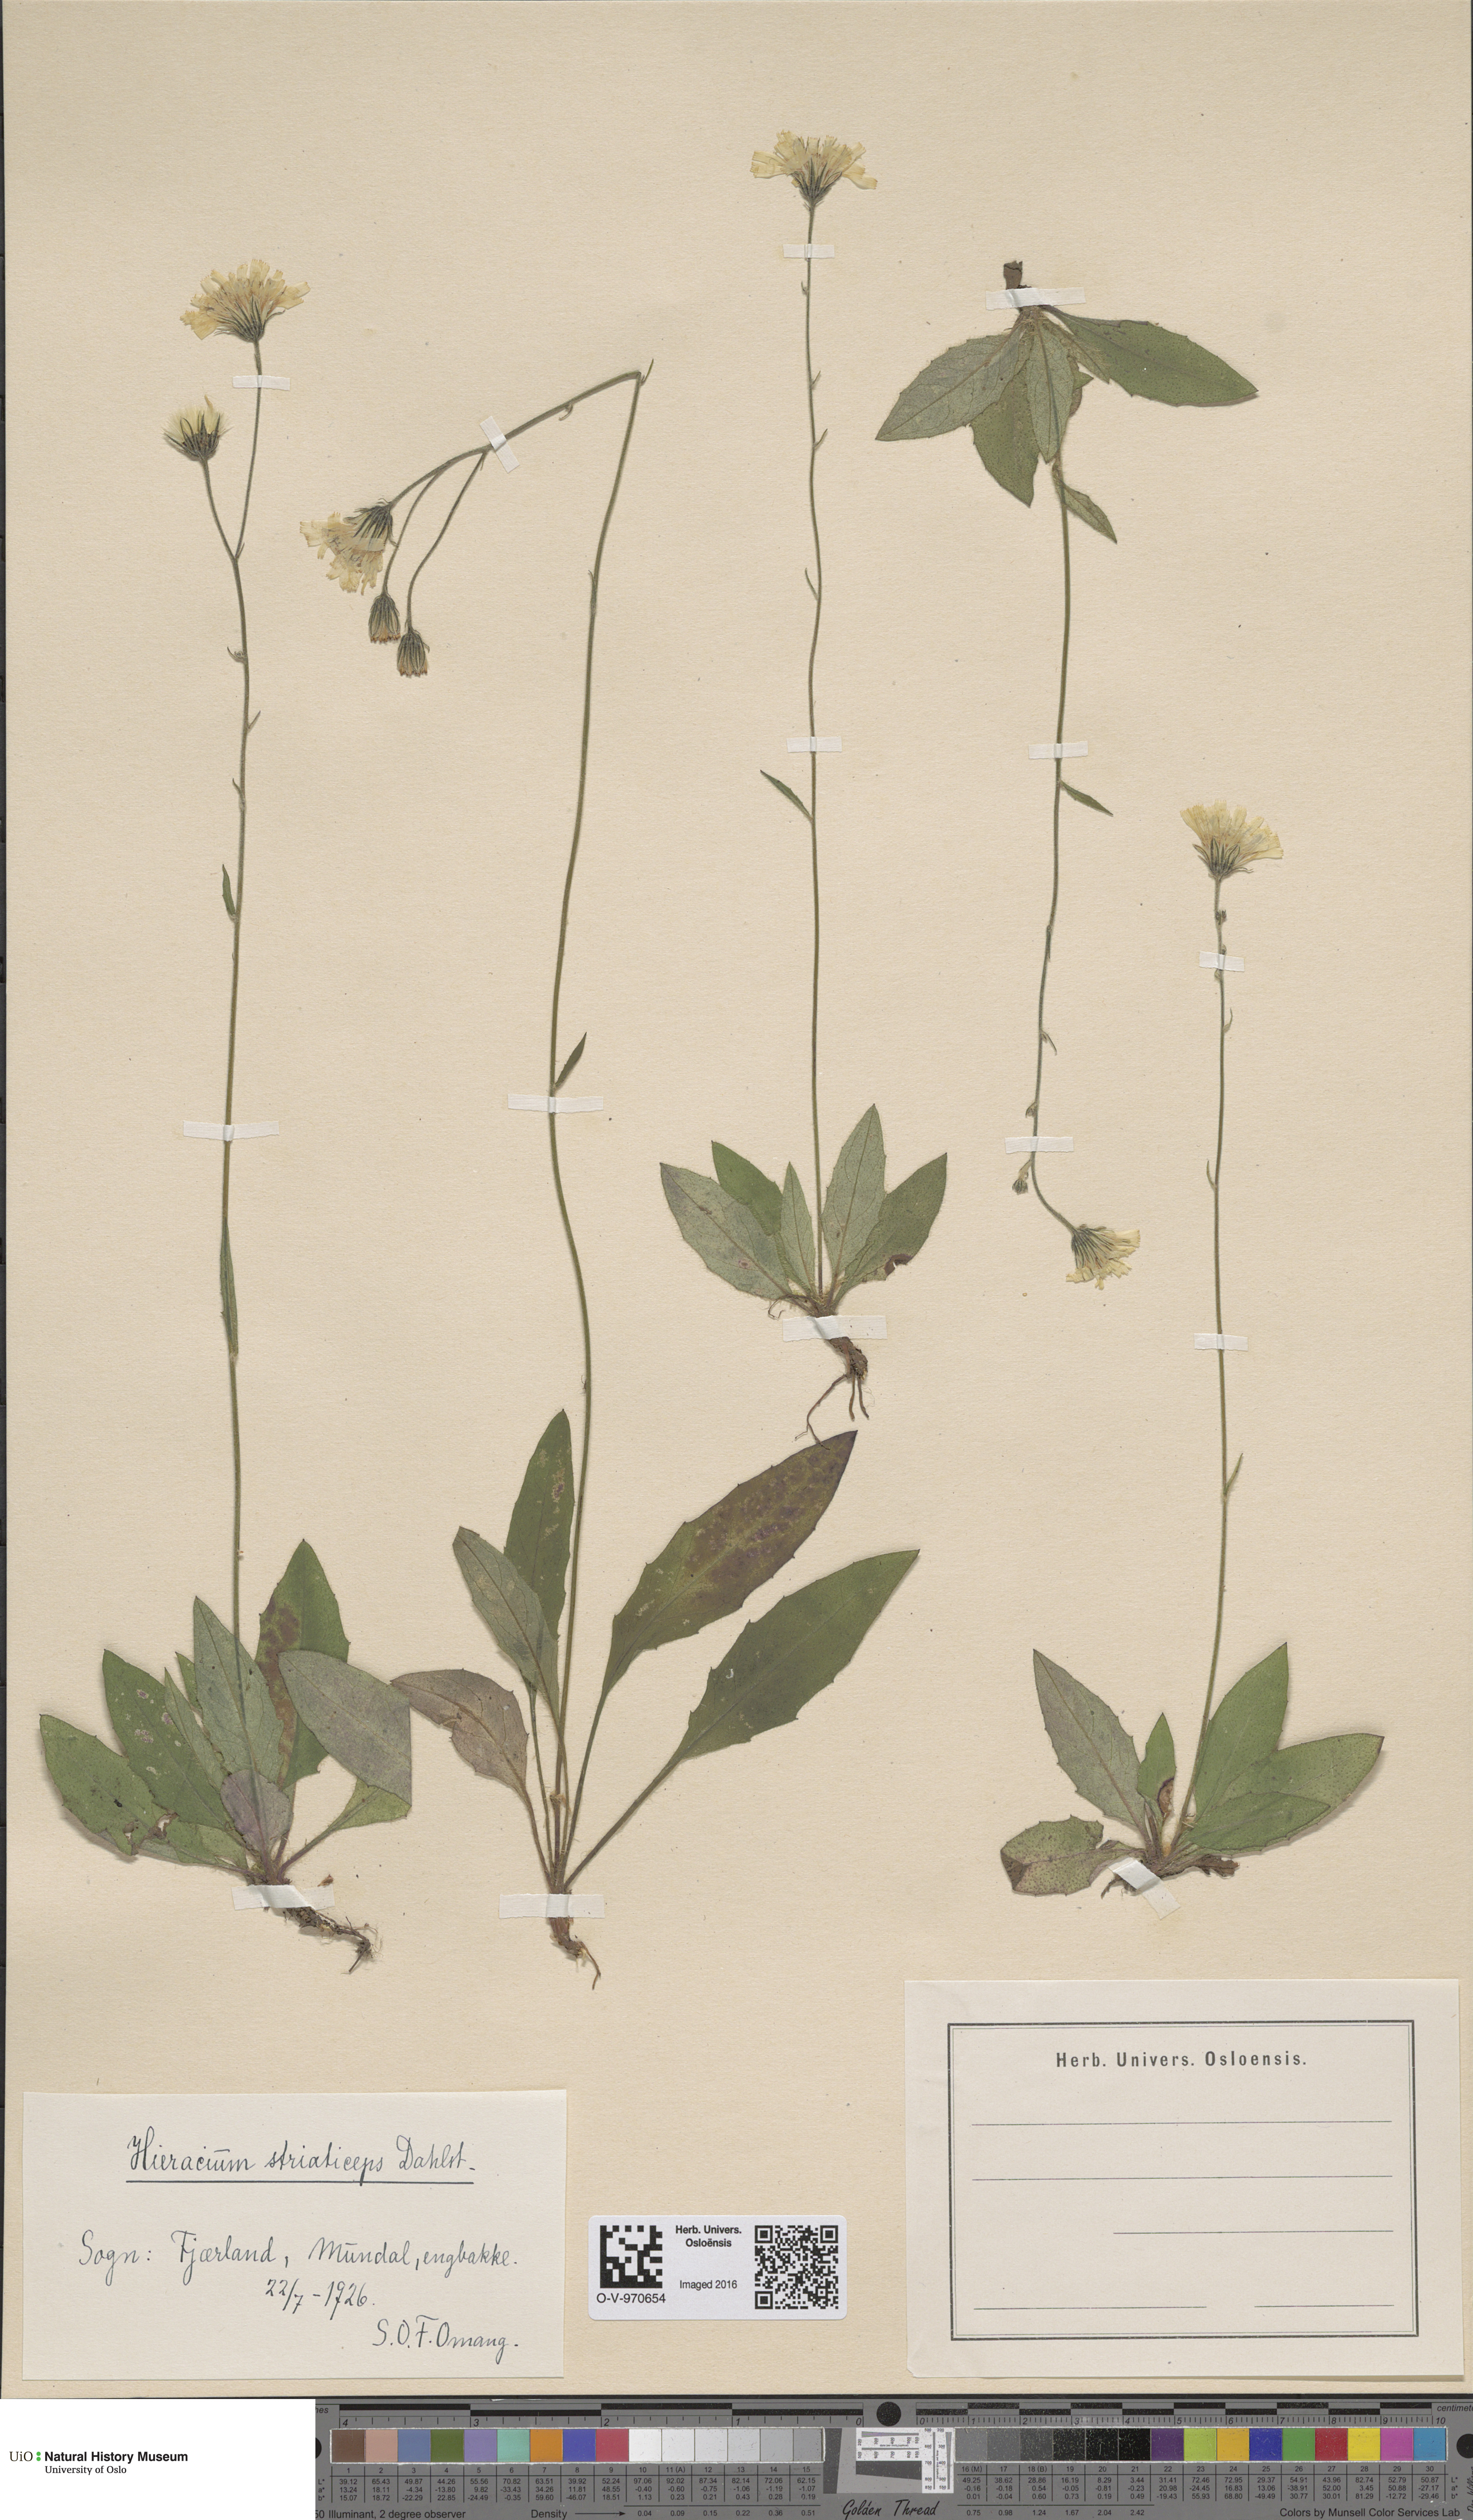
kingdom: Plantae
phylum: Tracheophyta
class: Magnoliopsida
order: Asterales
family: Asteraceae
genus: Hieracium
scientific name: Hieracium
